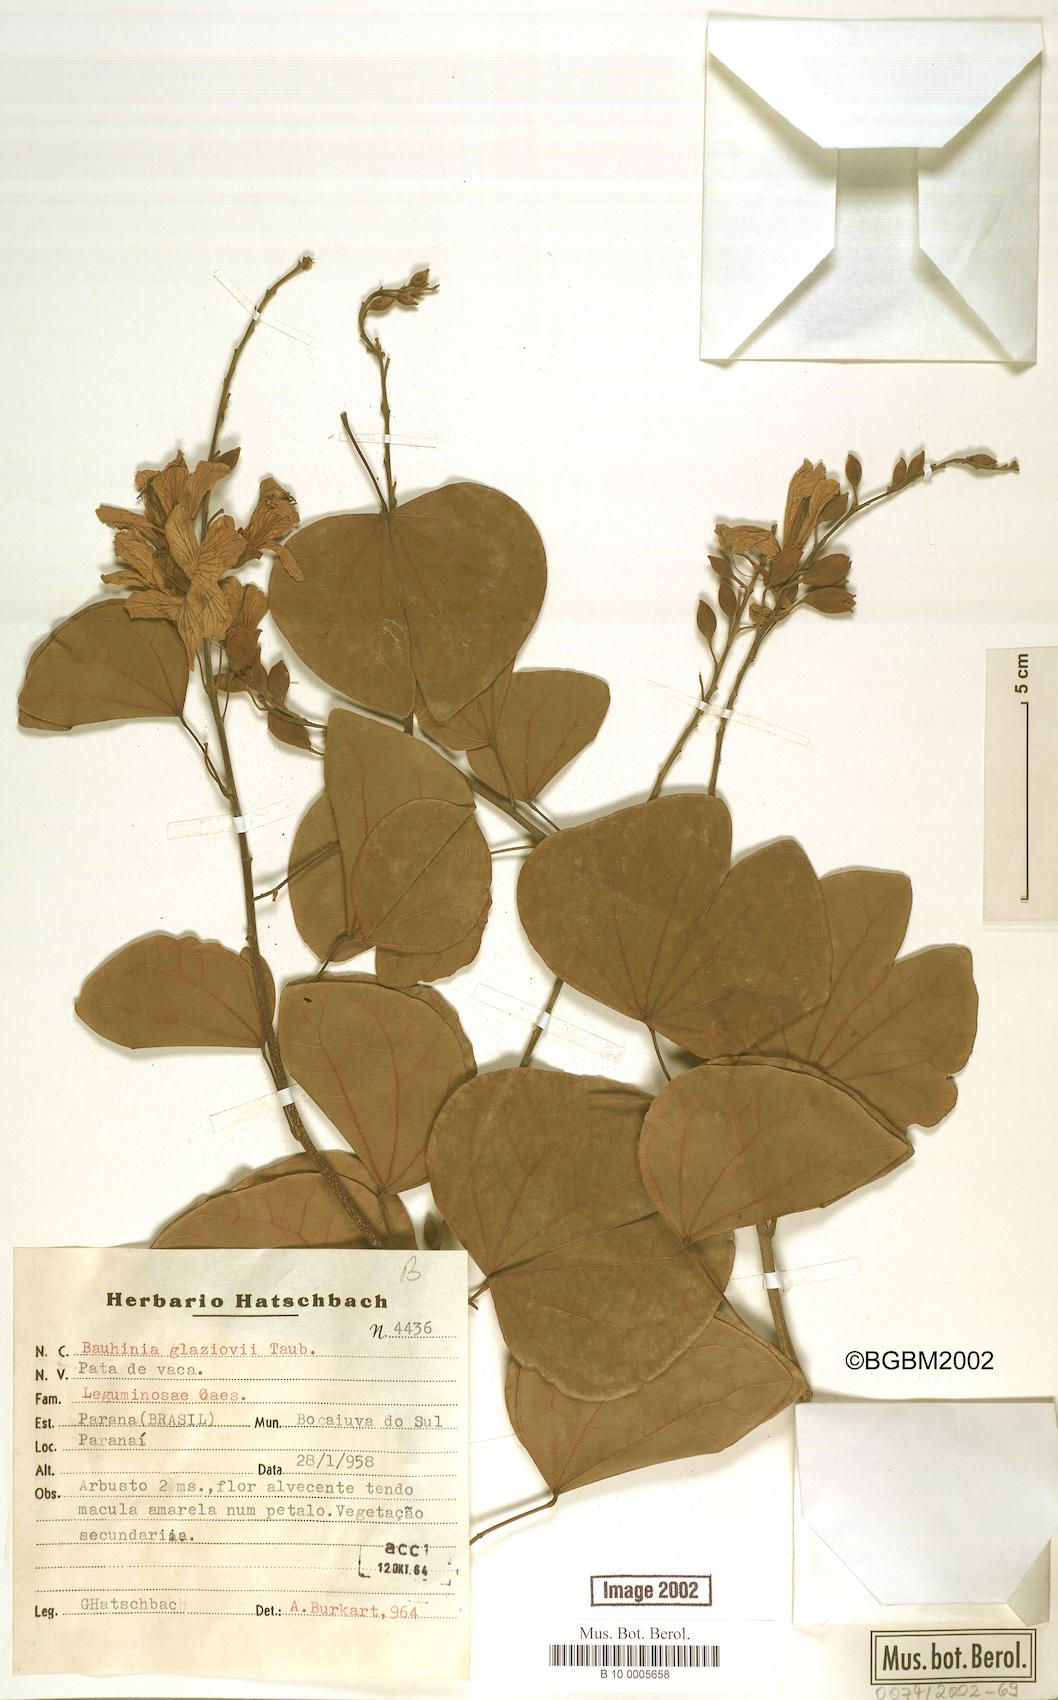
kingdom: Plantae
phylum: Tracheophyta
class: Magnoliopsida
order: Fabales
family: Fabaceae
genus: Bauhinia
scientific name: Bauhinia uruguayensis
